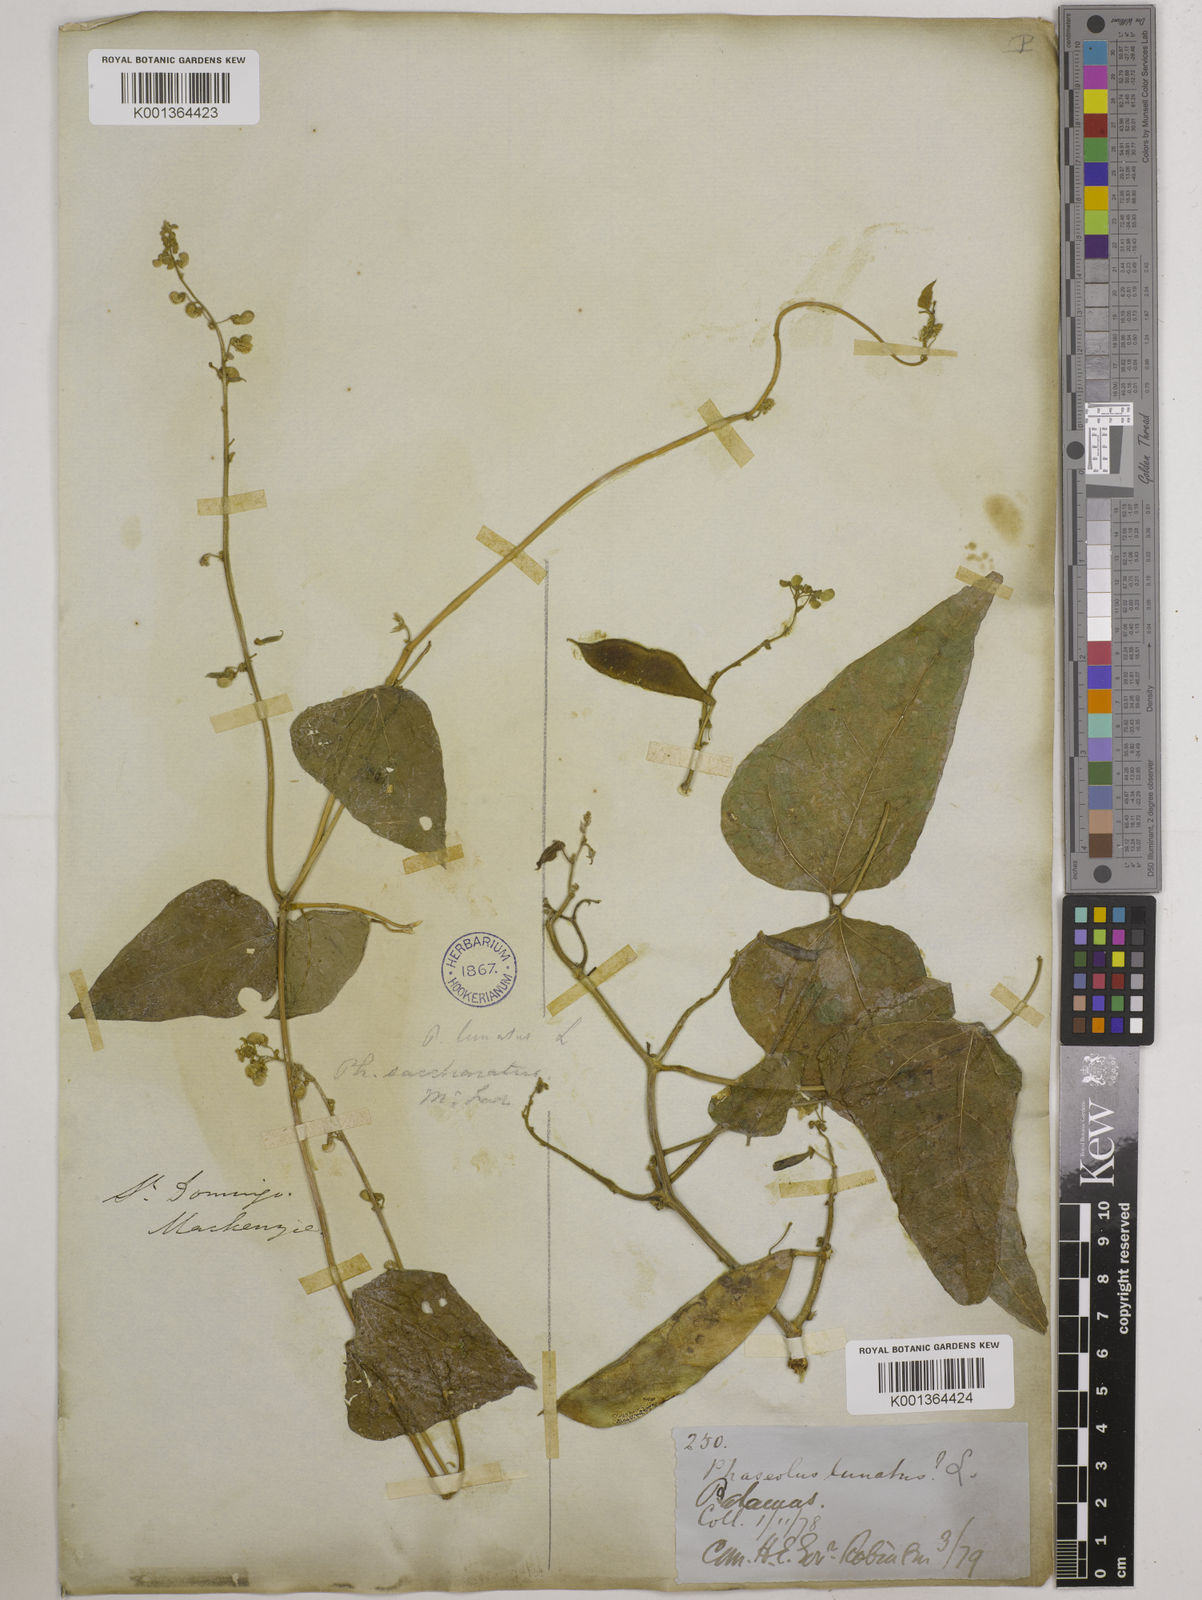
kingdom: Plantae
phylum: Tracheophyta
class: Magnoliopsida
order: Fabales
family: Fabaceae
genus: Phaseolus
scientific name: Phaseolus lunatus
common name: Sieva bean
